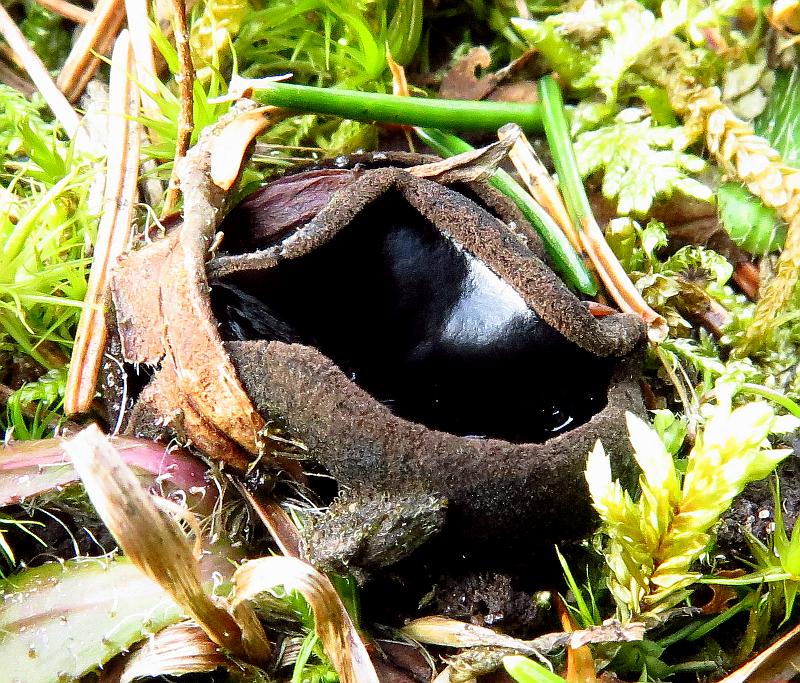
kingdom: Fungi
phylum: Ascomycota
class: Pezizomycetes
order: Pezizales
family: Sarcosomataceae
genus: Pseudoplectania
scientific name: Pseudoplectania nigrella
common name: almindelig sortbæger
